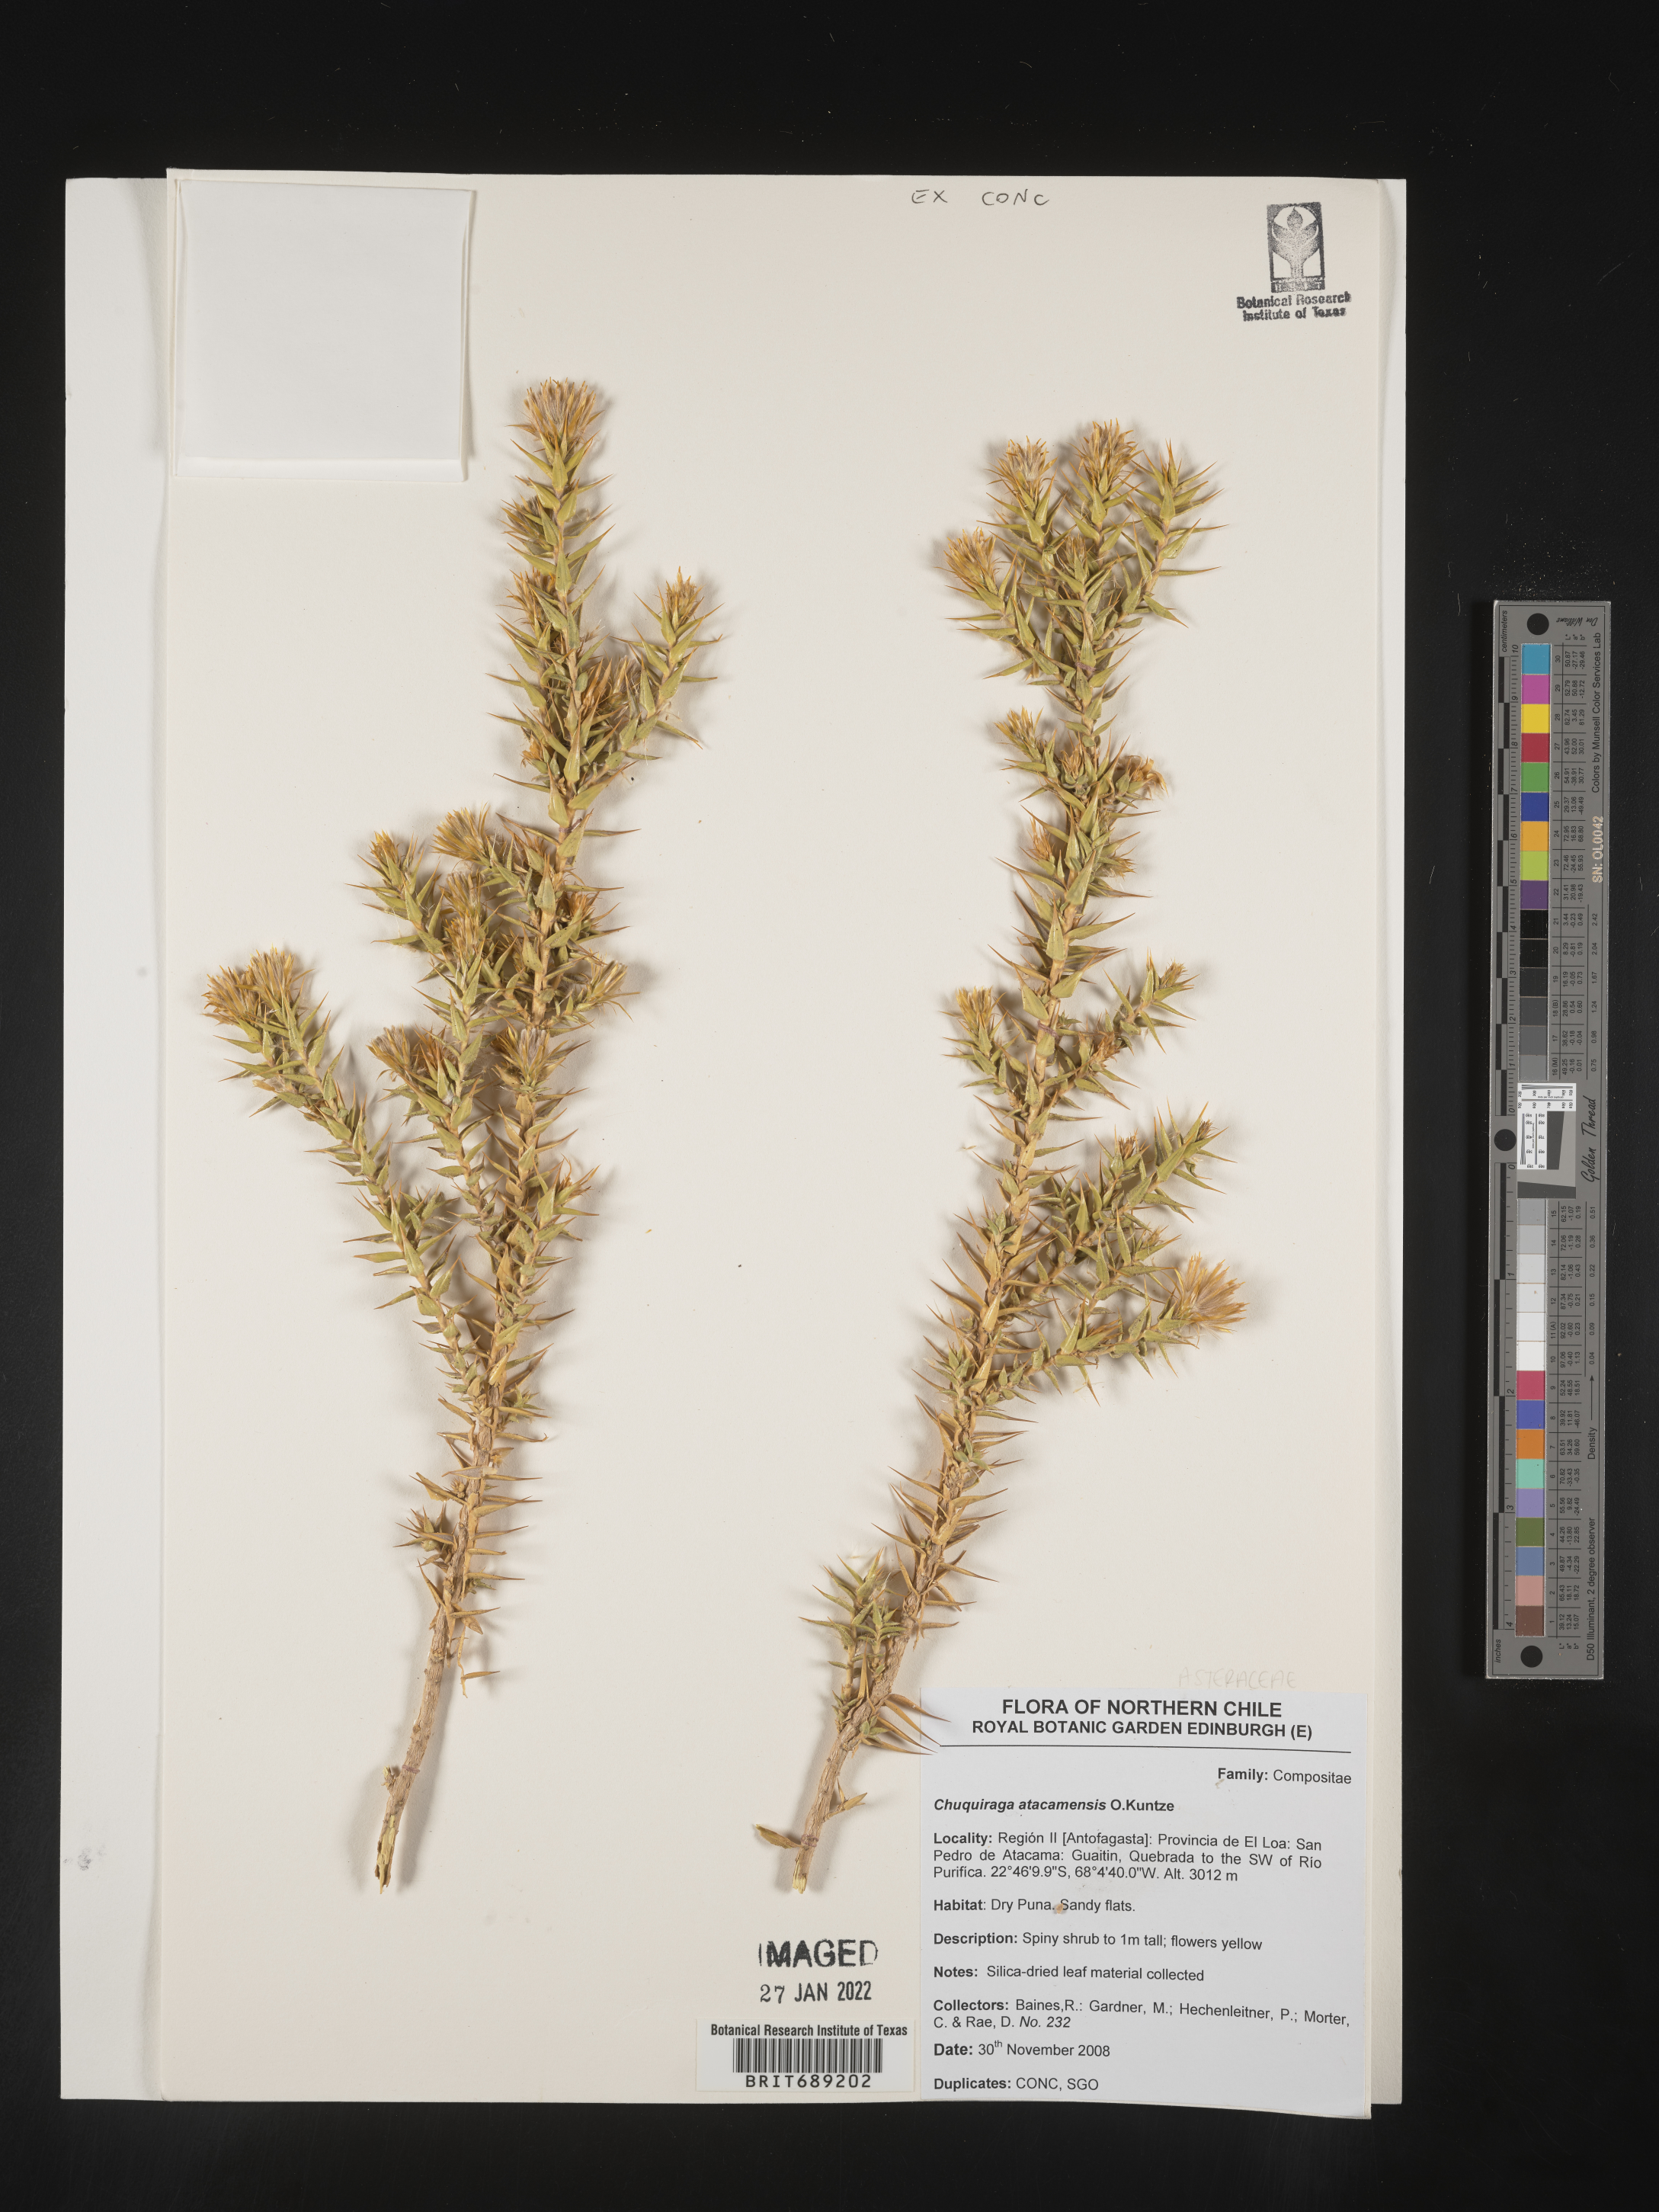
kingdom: Plantae
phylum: Tracheophyta
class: Magnoliopsida
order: Asterales
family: Asteraceae
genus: Chuquiraga
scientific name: Chuquiraga
